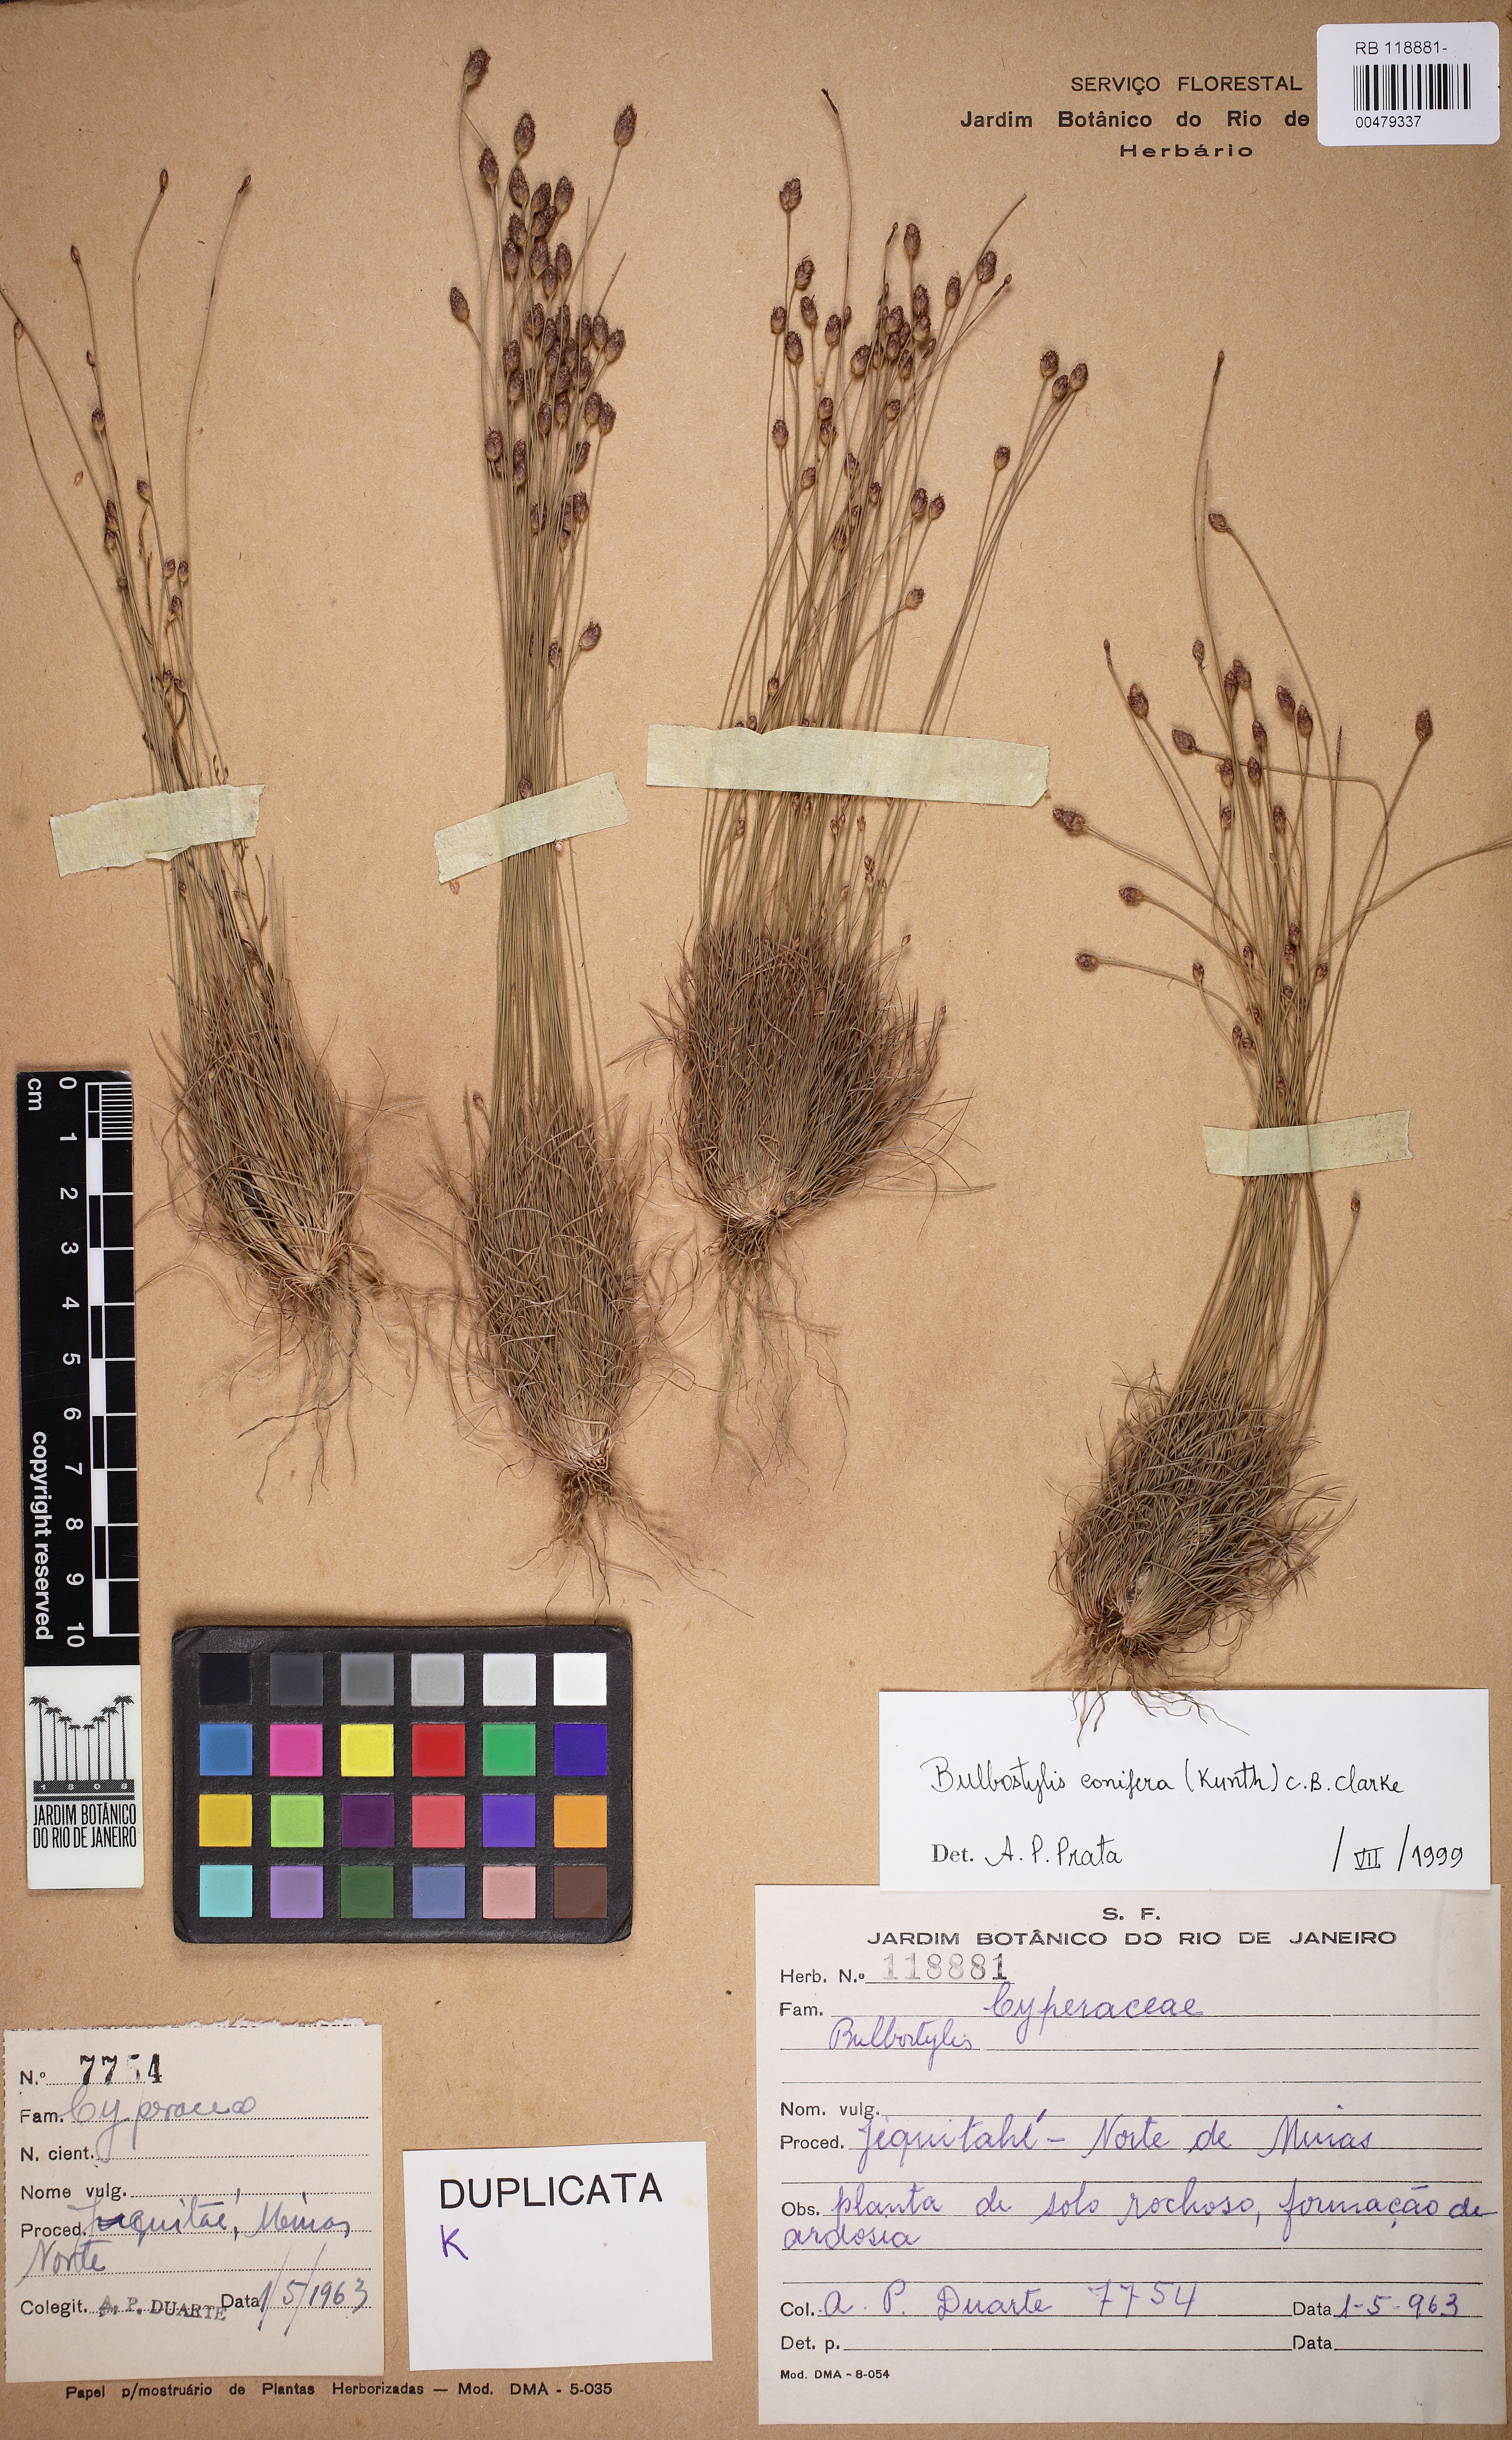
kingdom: Plantae
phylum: Tracheophyta
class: Liliopsida
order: Poales
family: Cyperaceae
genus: Bulbostylis
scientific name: Bulbostylis conifera
